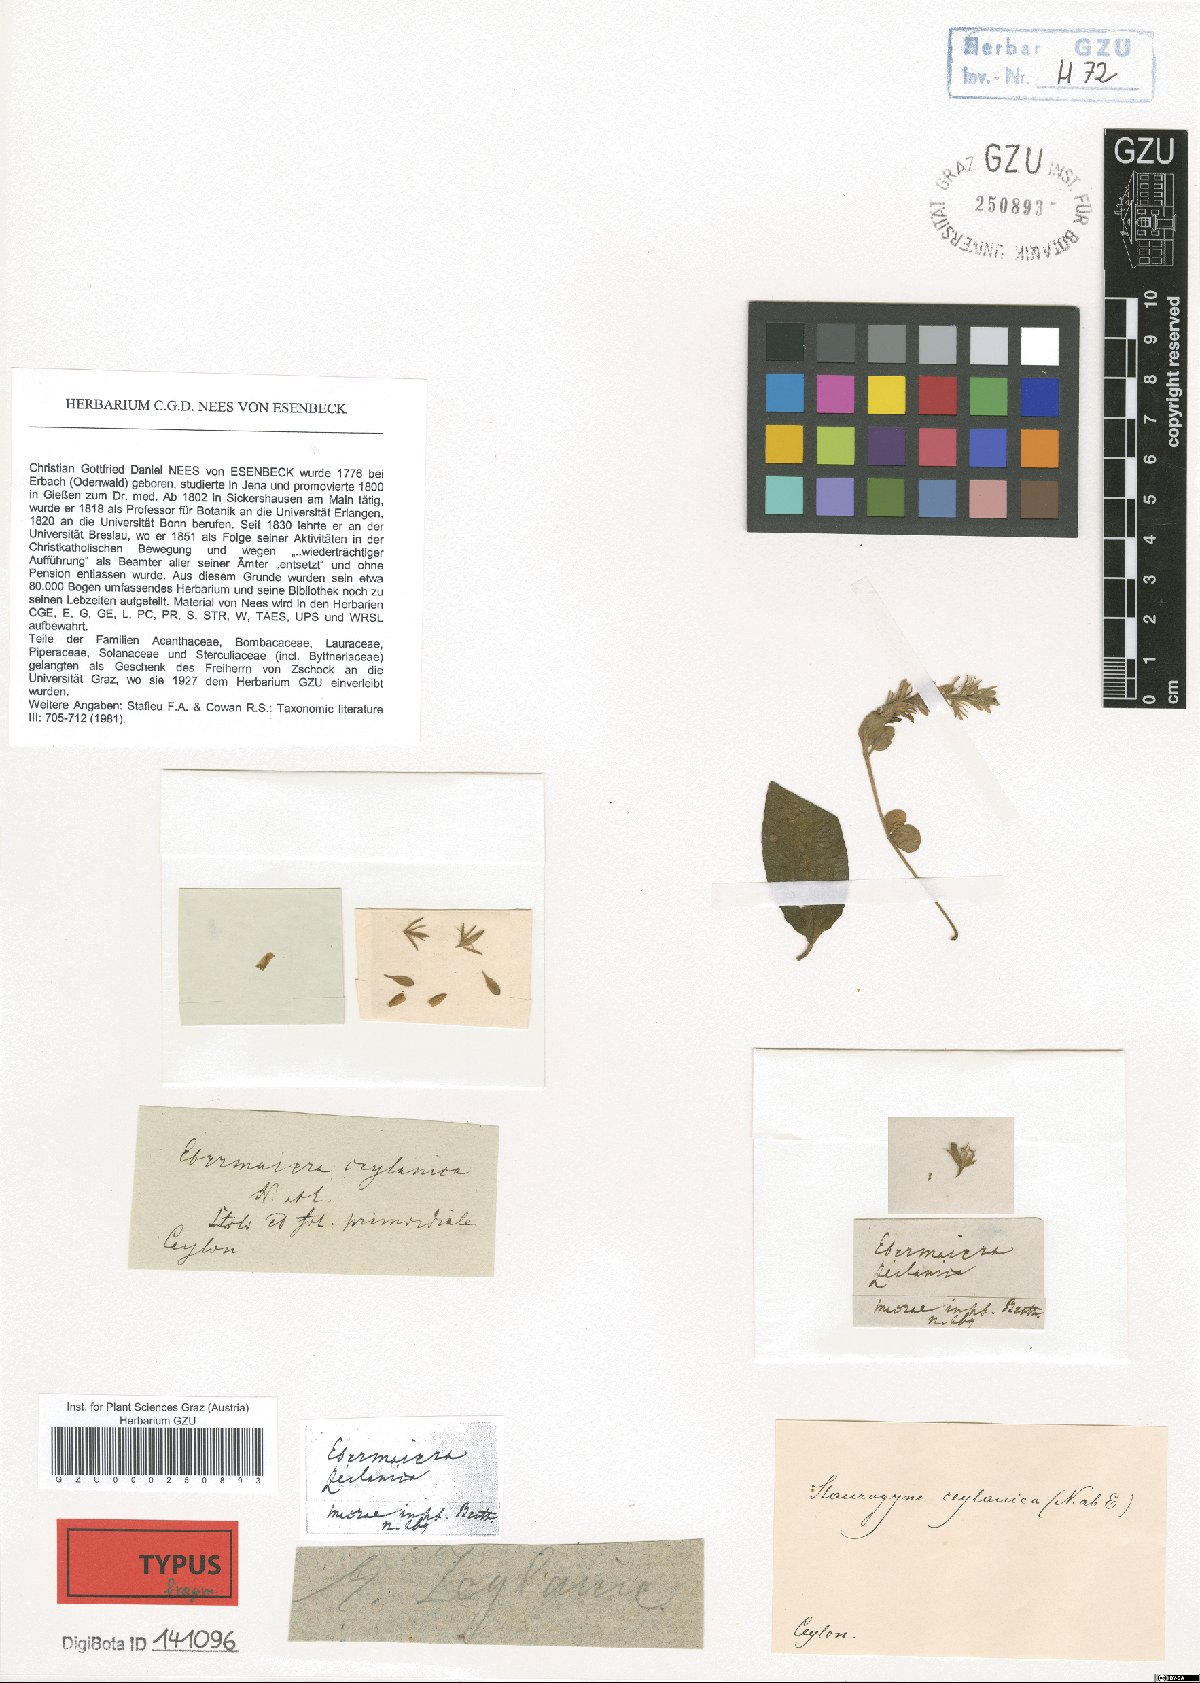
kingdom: Plantae
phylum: Tracheophyta
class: Magnoliopsida
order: Lamiales
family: Acanthaceae
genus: Staurogyne
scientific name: Staurogyne zeylanica
